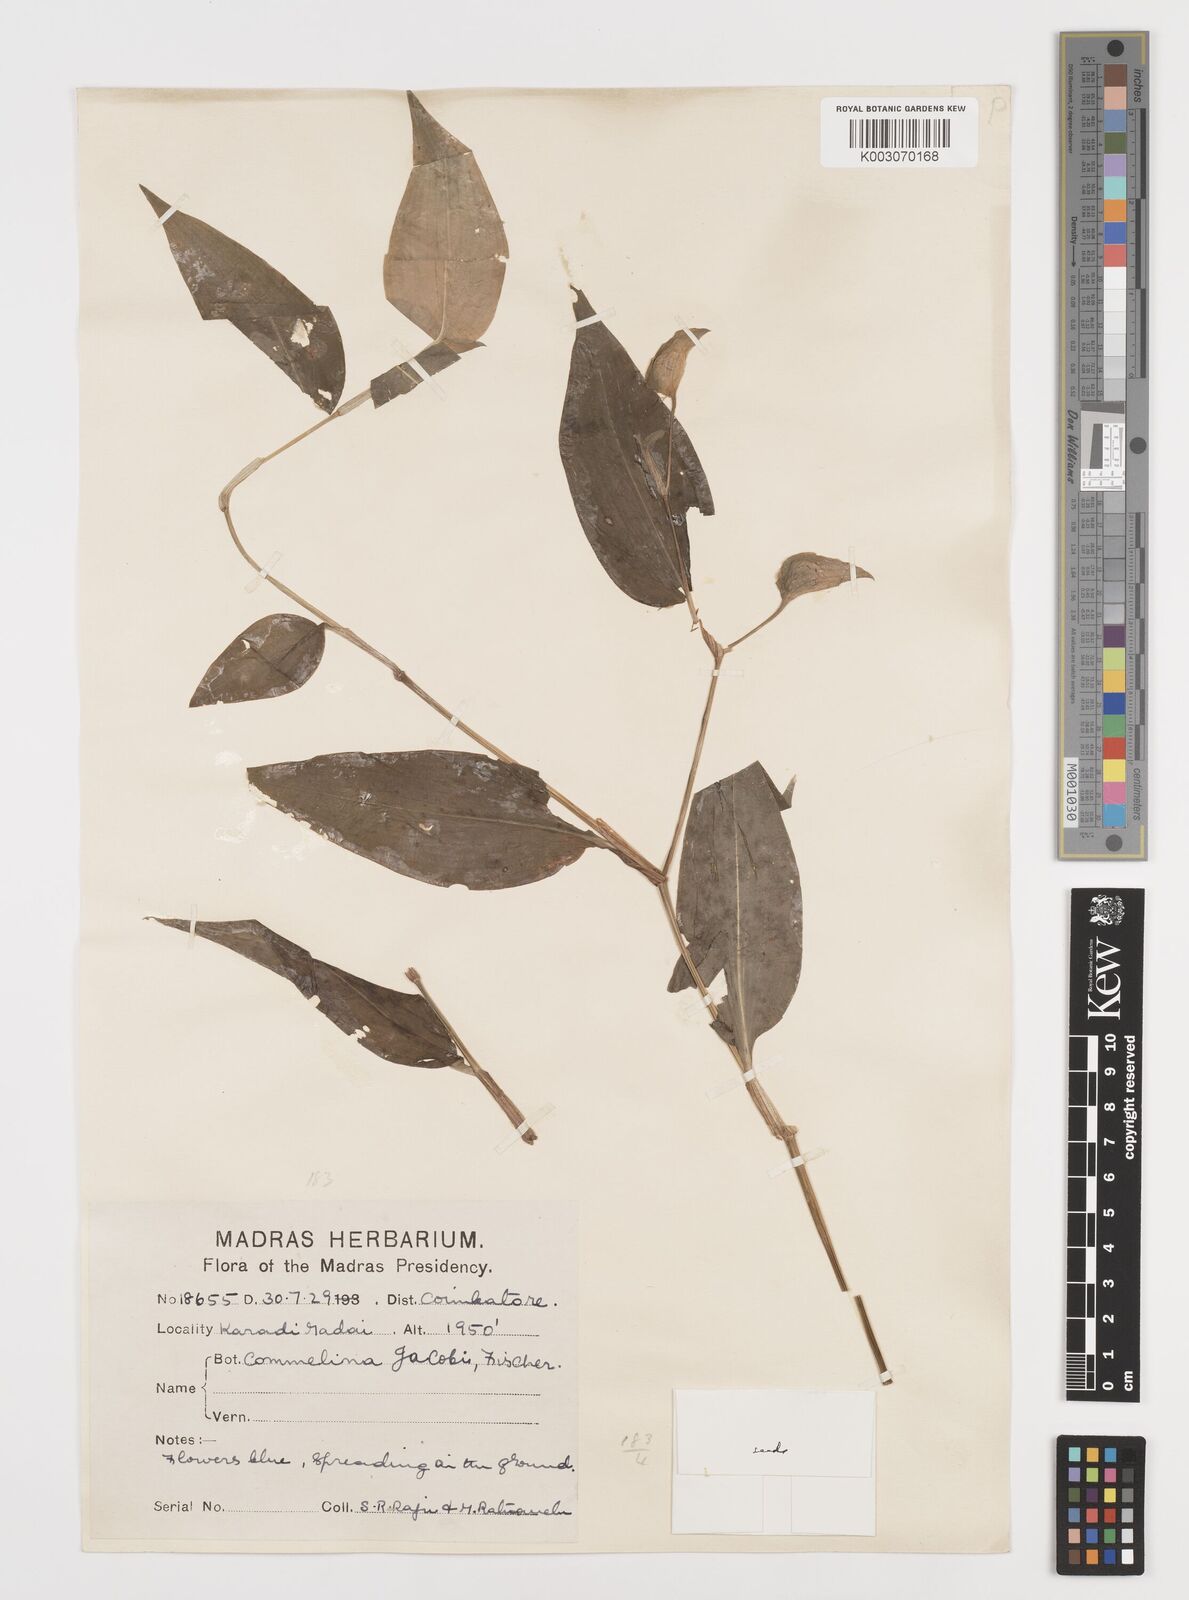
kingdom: Plantae
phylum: Tracheophyta
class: Liliopsida
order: Commelinales
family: Commelinaceae
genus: Commelina
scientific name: Commelina petersii
